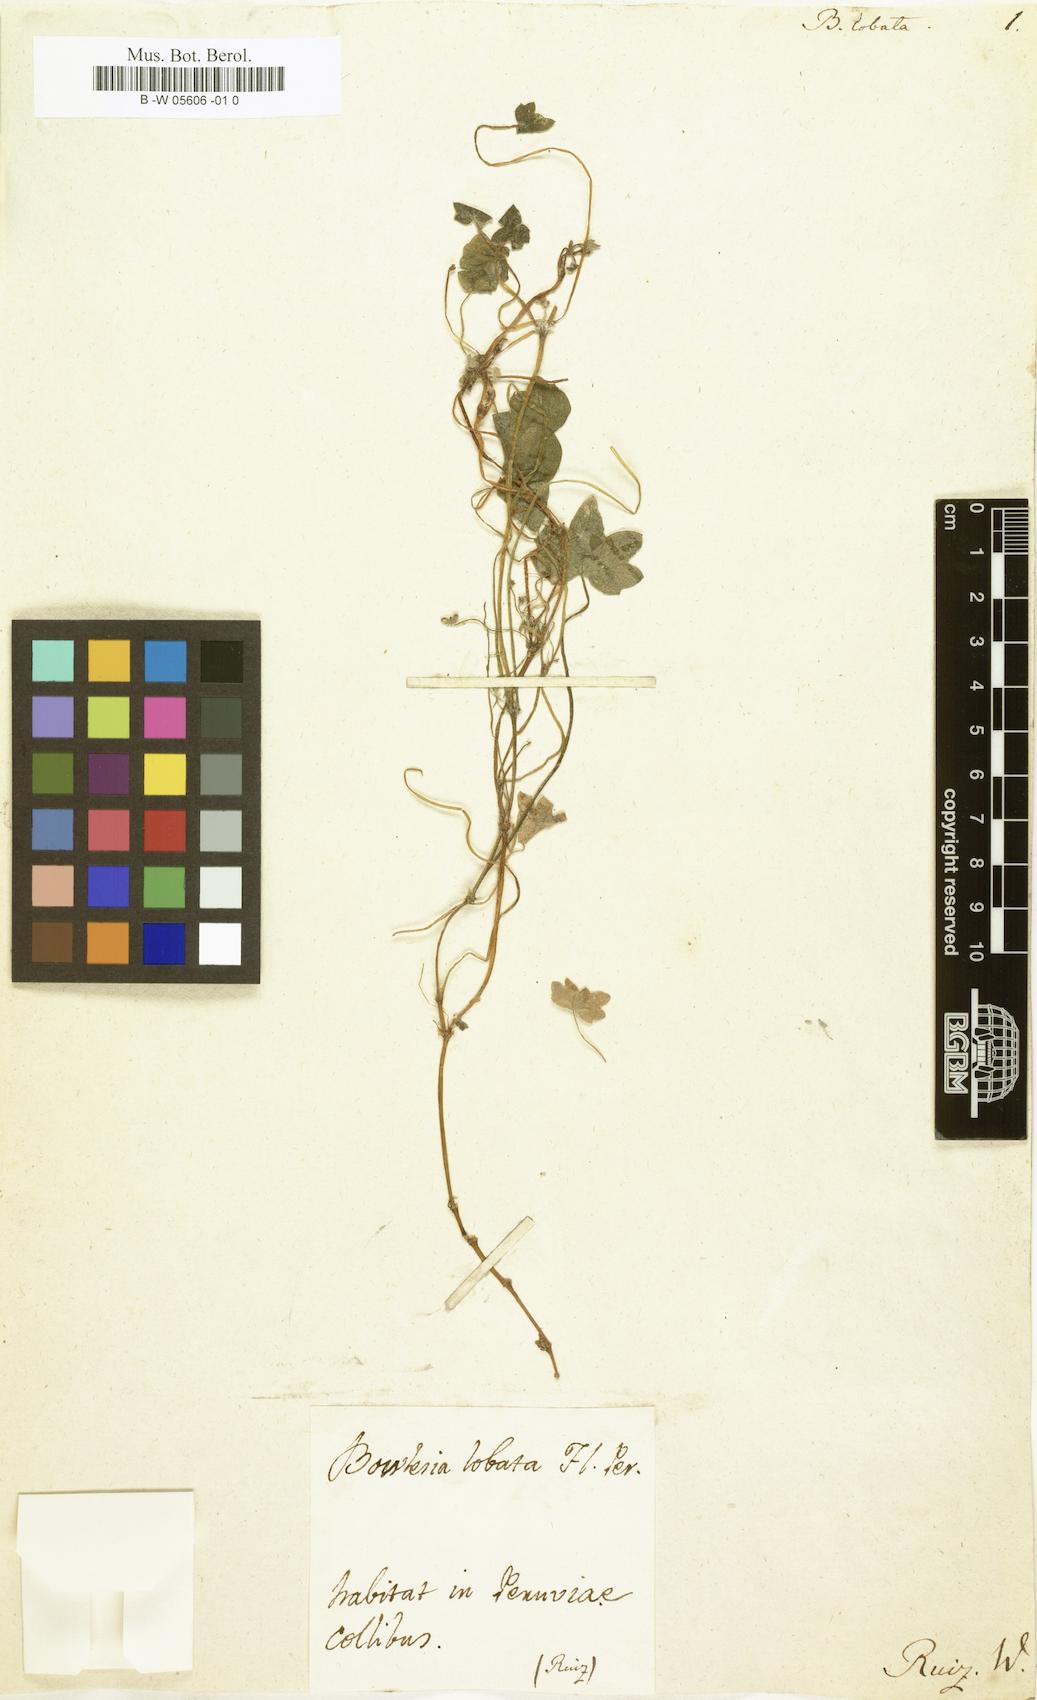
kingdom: Plantae
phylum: Tracheophyta
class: Magnoliopsida
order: Apiales
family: Apiaceae
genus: Bowlesia
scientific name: Bowlesia lobata
